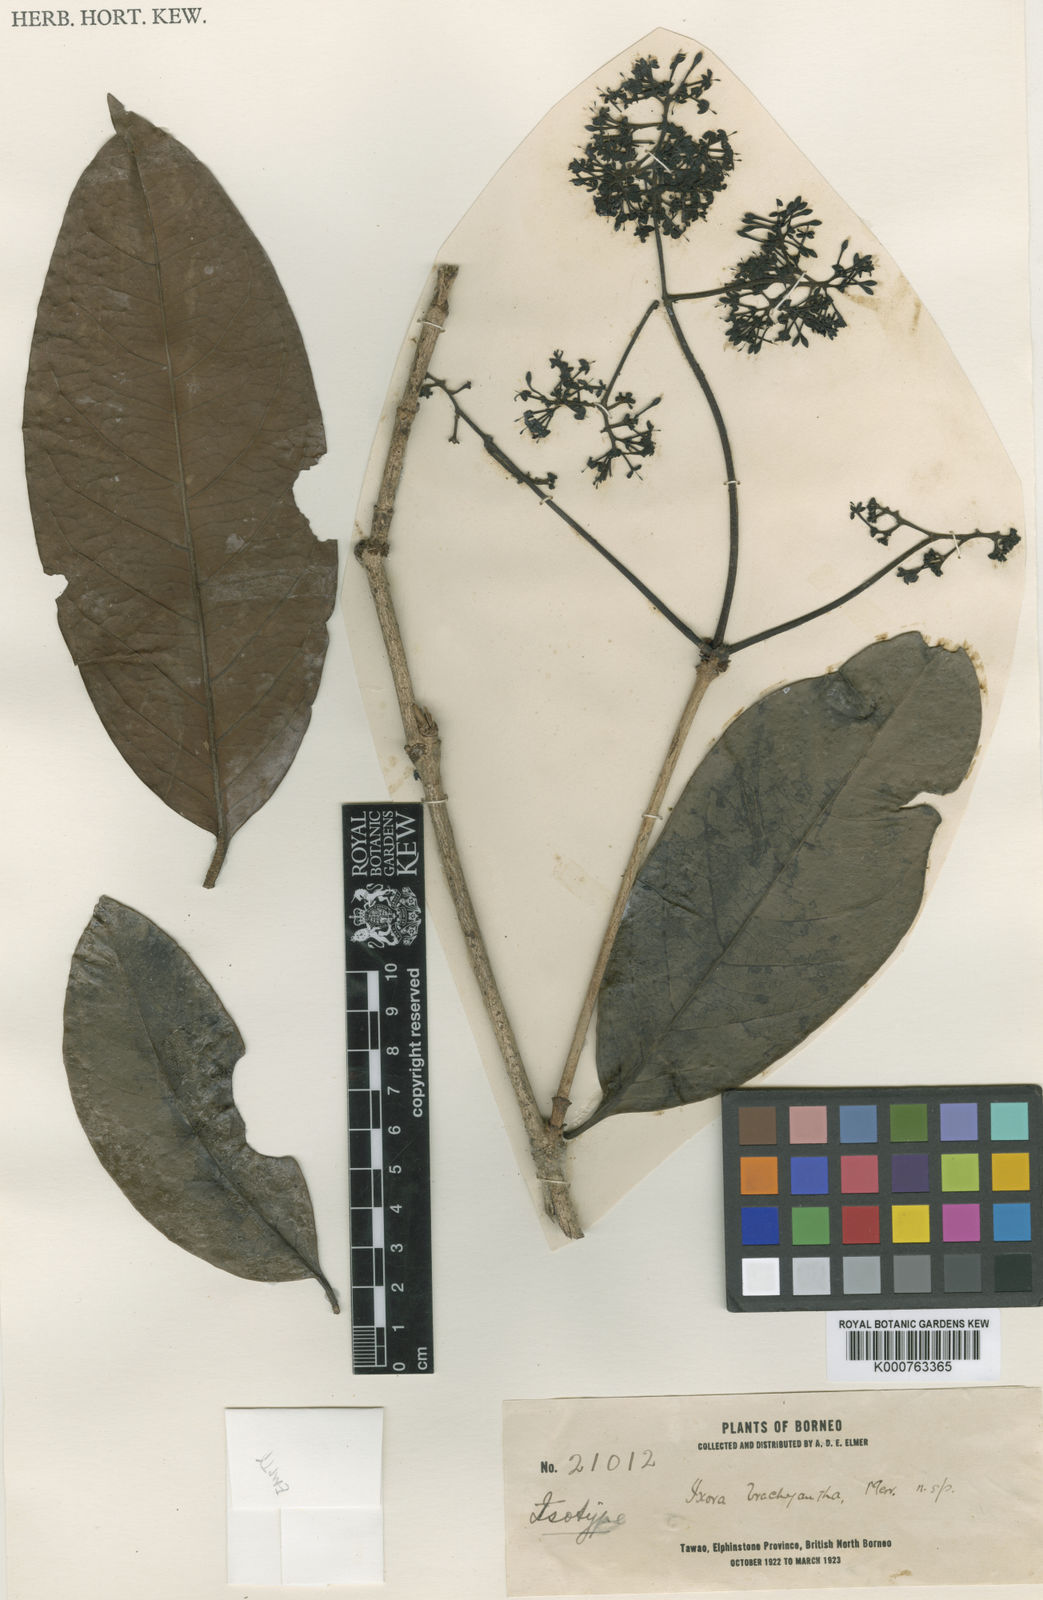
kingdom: Plantae
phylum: Tracheophyta
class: Magnoliopsida
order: Gentianales
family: Rubiaceae
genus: Ixora
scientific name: Ixora brachyantha
